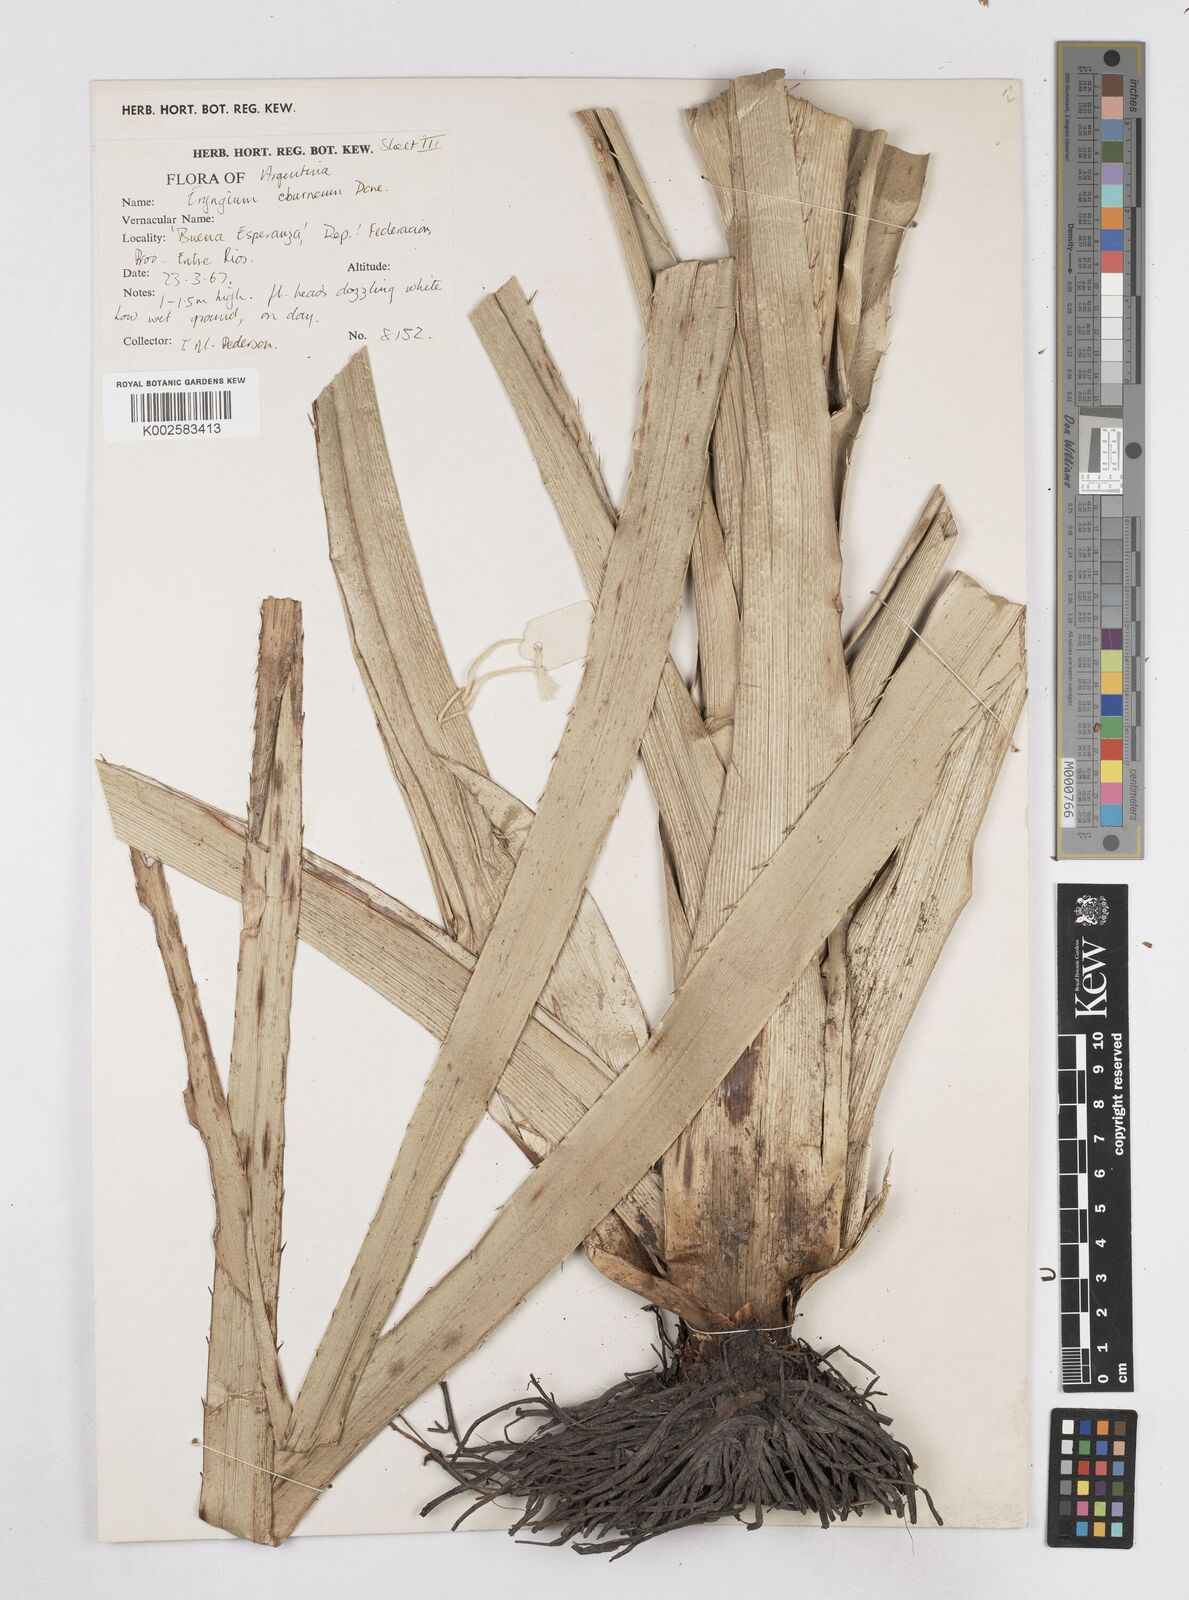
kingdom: Plantae
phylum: Tracheophyta
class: Magnoliopsida
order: Apiales
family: Apiaceae
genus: Eryngium
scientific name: Eryngium eburneum
